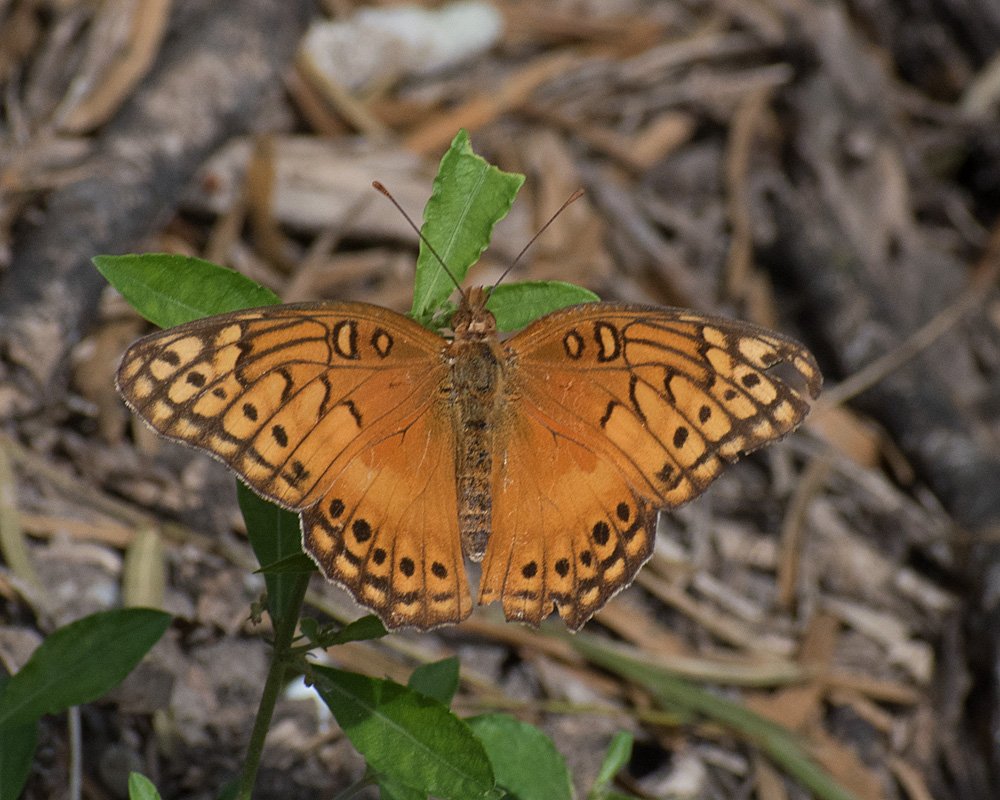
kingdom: Animalia
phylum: Arthropoda
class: Insecta
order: Lepidoptera
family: Nymphalidae
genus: Euptoieta
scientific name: Euptoieta hegesia
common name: Mexican Fritillary
